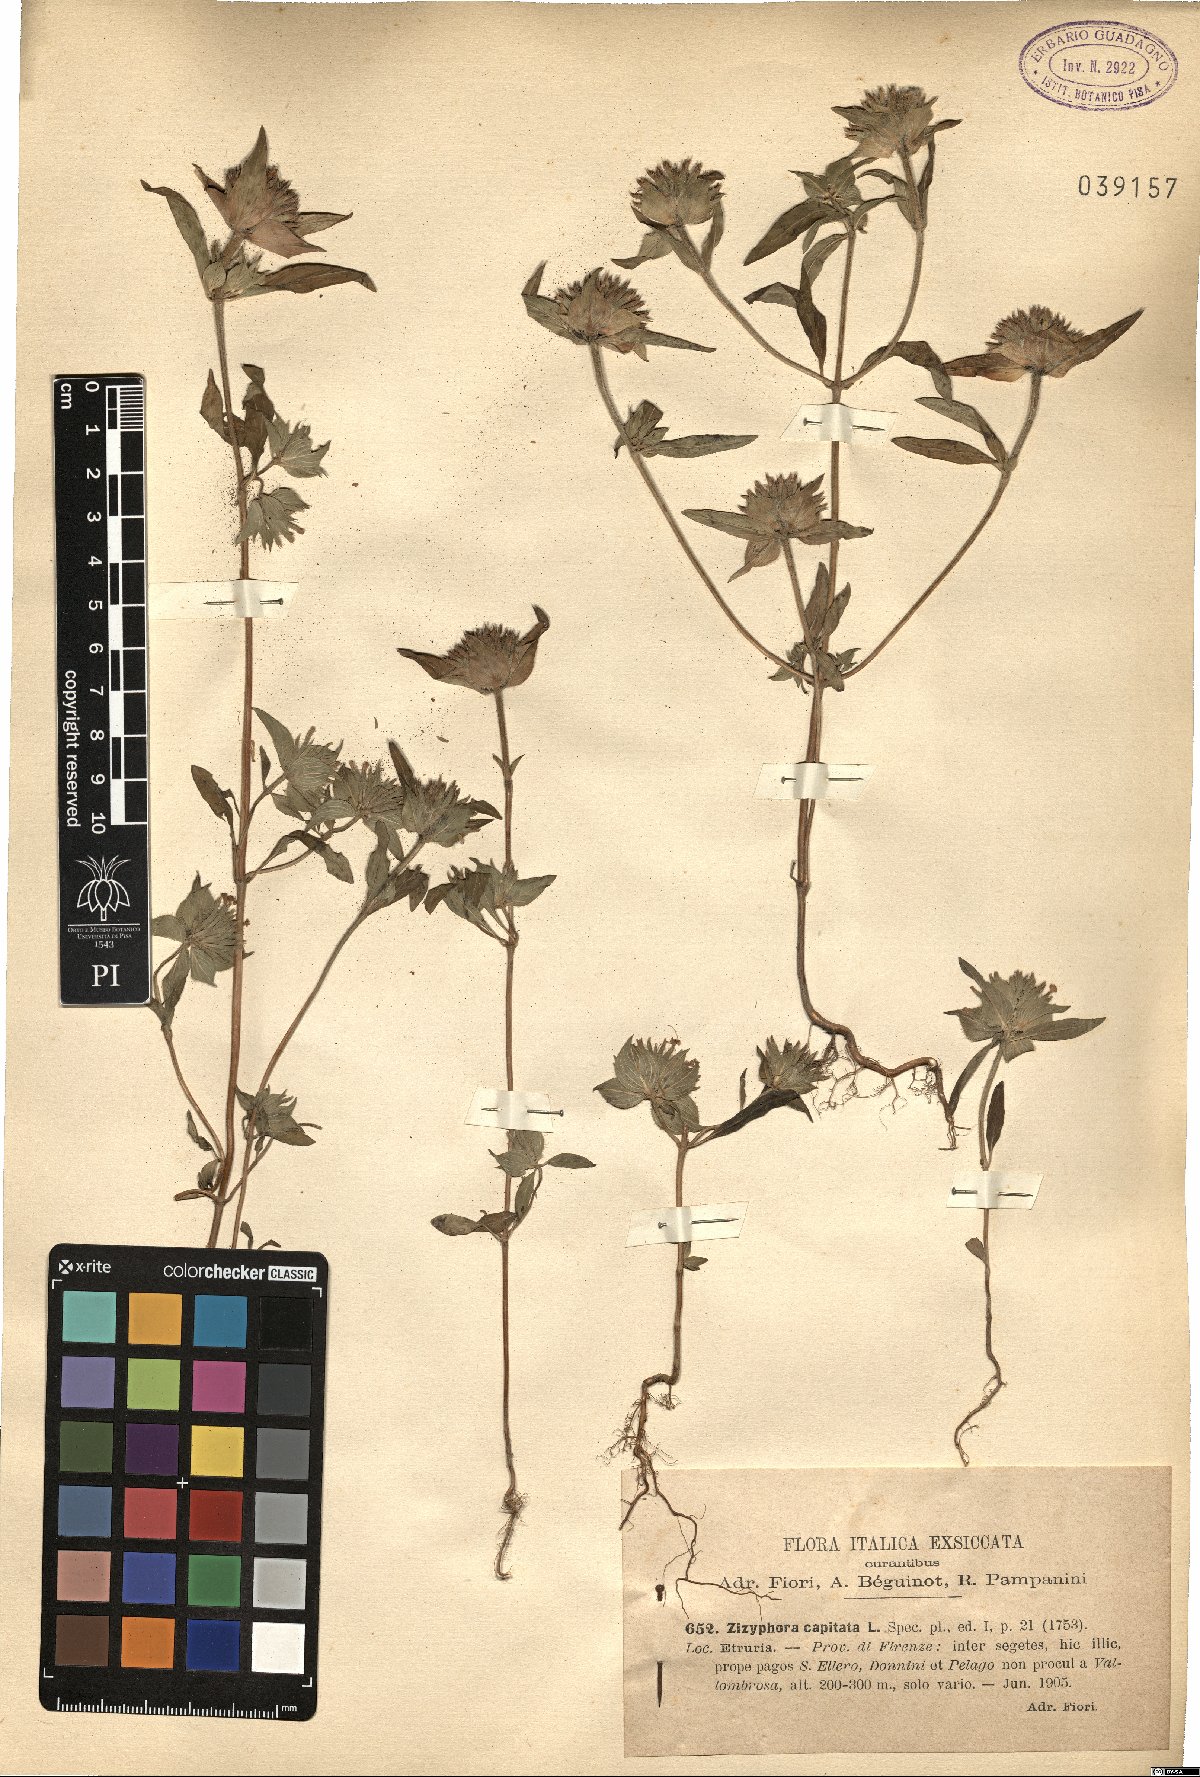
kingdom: Plantae
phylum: Tracheophyta
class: Magnoliopsida
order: Lamiales
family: Lamiaceae
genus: Ziziphora
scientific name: Ziziphora capitata
